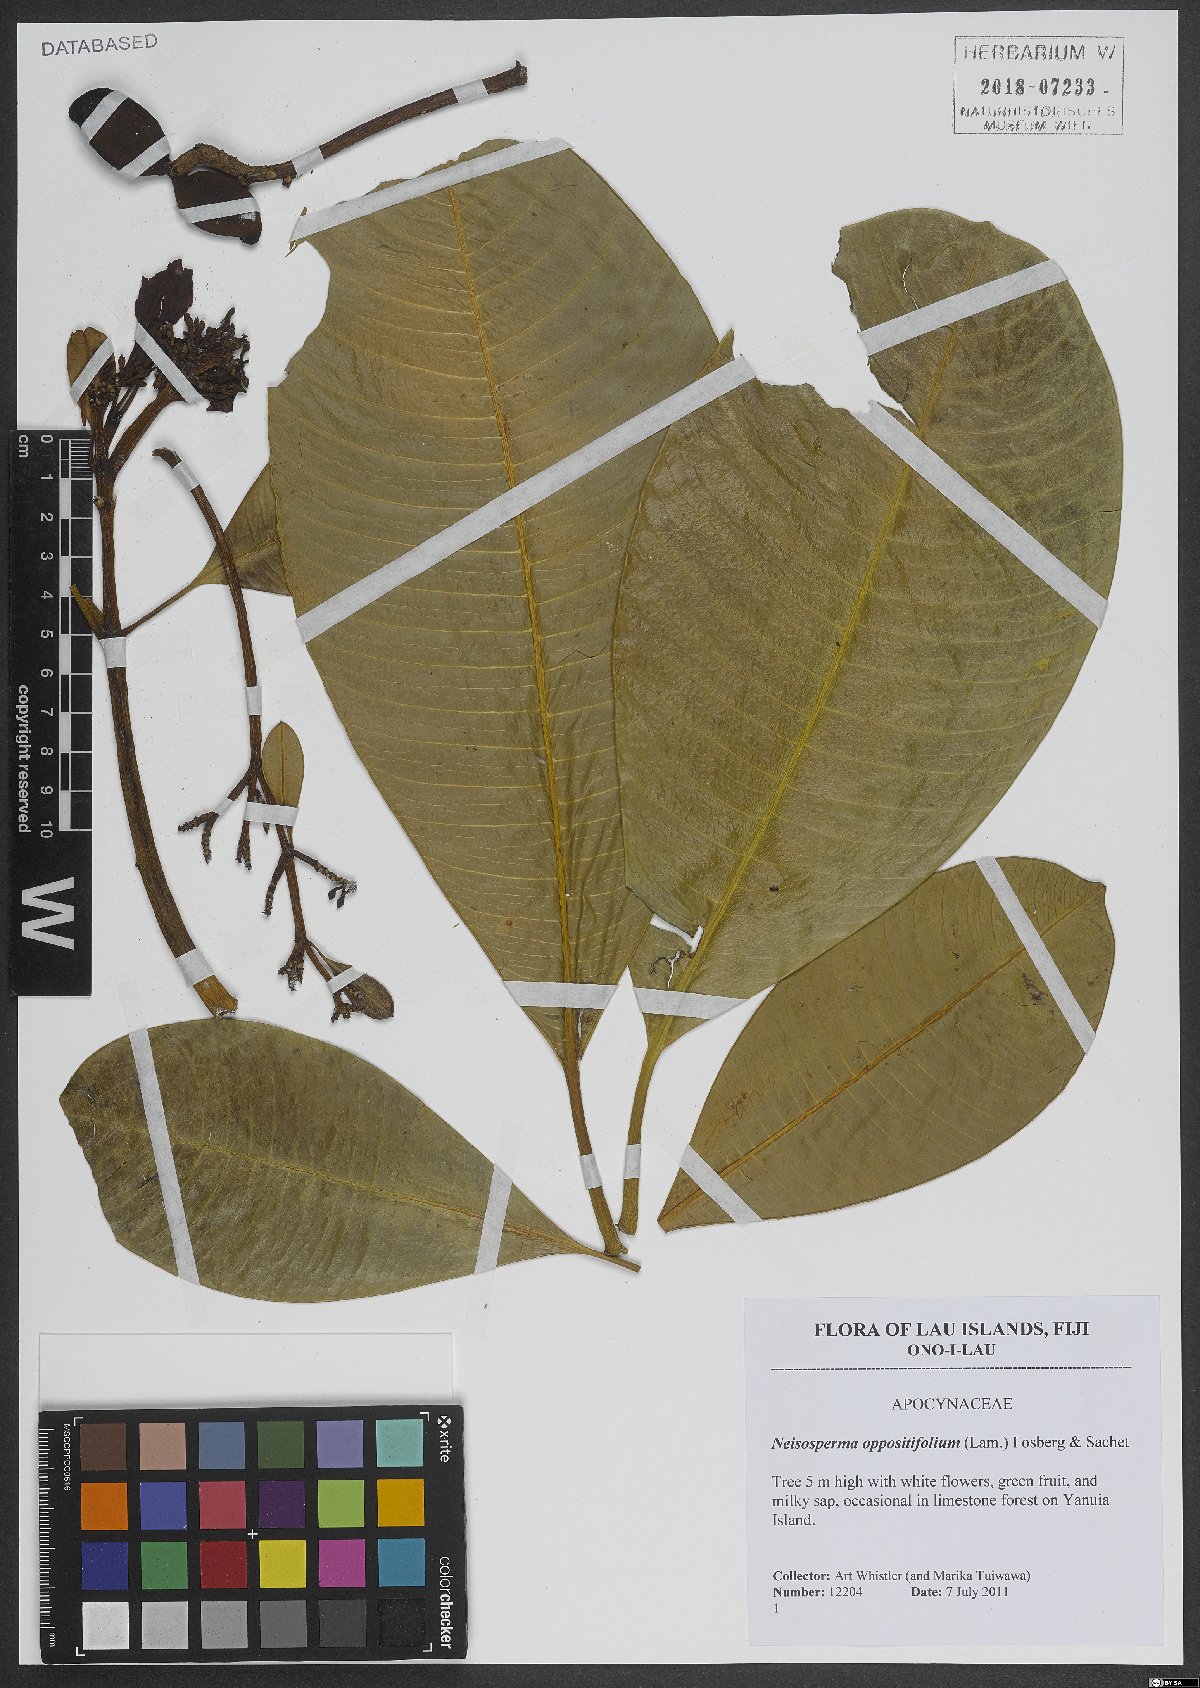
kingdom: Plantae
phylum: Tracheophyta
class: Magnoliopsida
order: Gentianales
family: Apocynaceae
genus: Ochrosia
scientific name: Ochrosia oppositifolia
